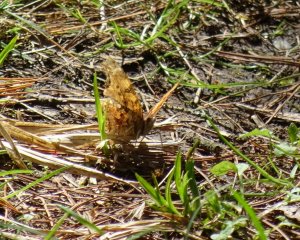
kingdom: Animalia
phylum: Arthropoda
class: Insecta
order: Lepidoptera
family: Nymphalidae
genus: Polygonia
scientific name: Polygonia
